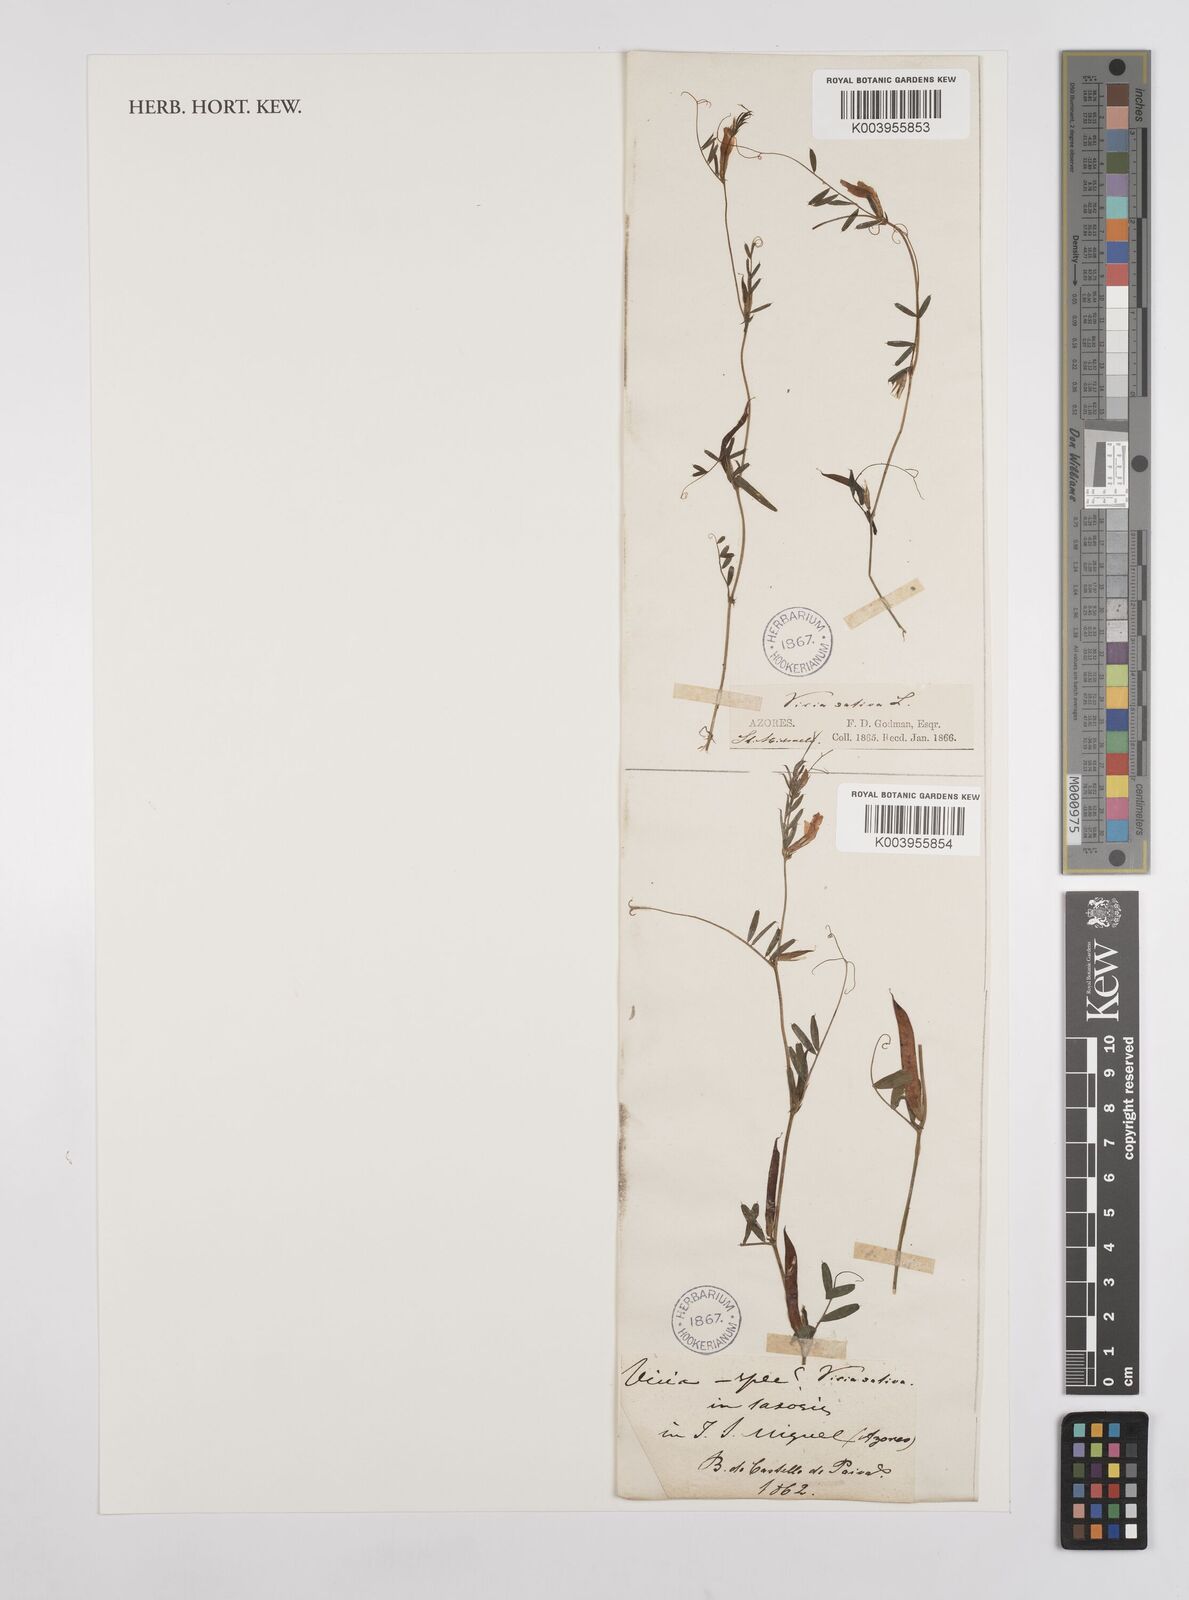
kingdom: Plantae
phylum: Tracheophyta
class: Magnoliopsida
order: Fabales
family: Fabaceae
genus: Vicia
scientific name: Vicia
